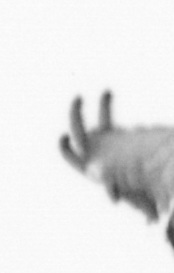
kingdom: Animalia
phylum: Annelida
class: Polychaeta
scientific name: Polychaeta
